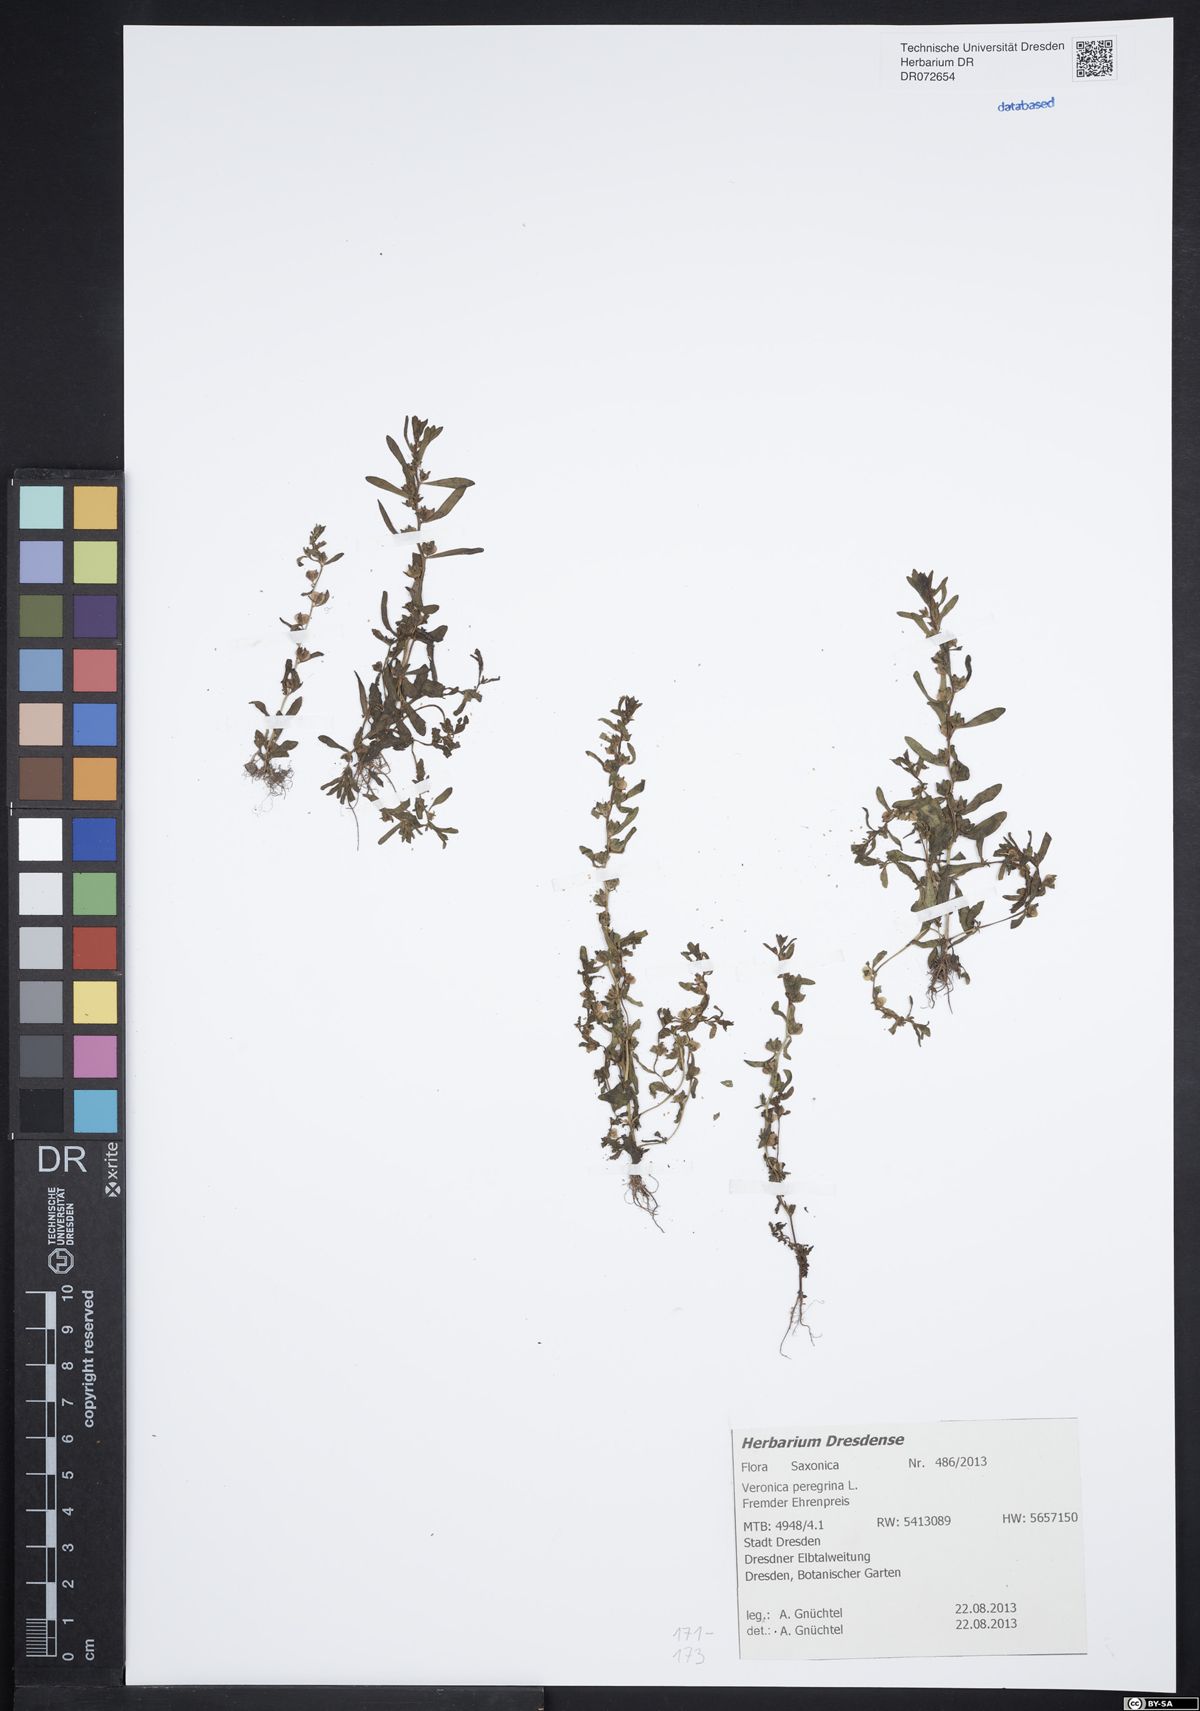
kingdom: Plantae
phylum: Tracheophyta
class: Magnoliopsida
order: Lamiales
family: Plantaginaceae
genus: Veronica
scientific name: Veronica peregrina
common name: Neckweed
